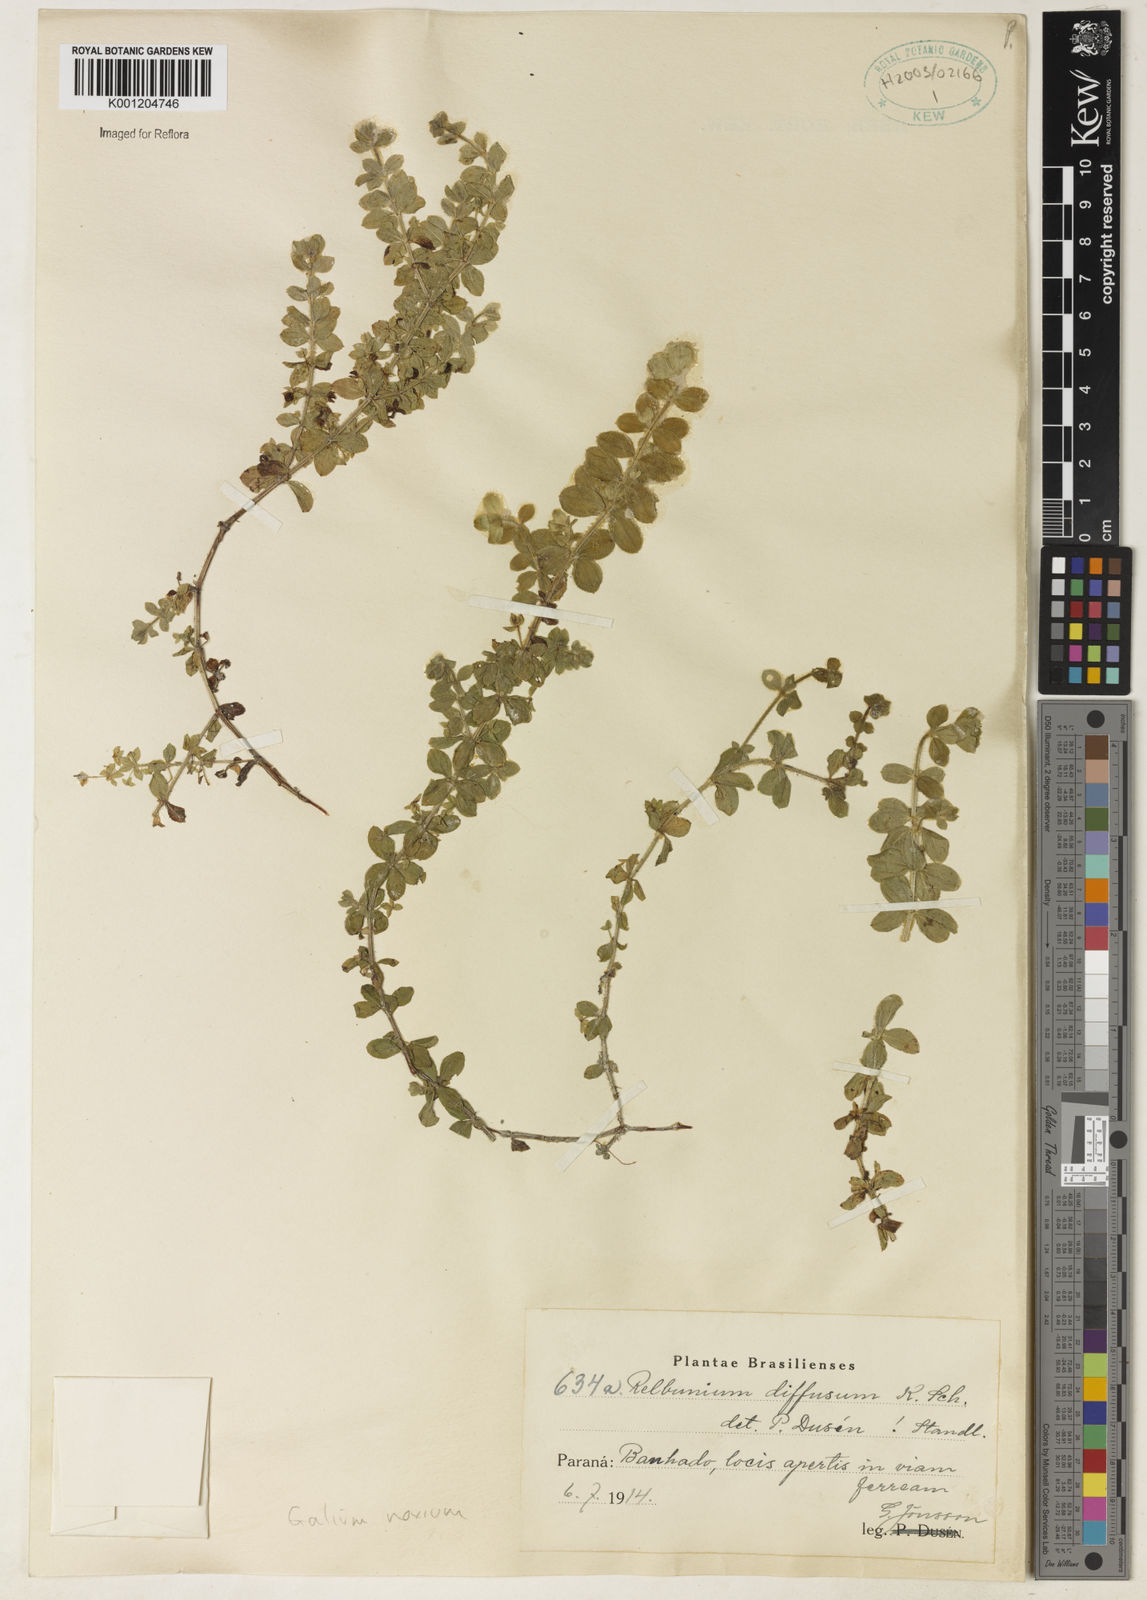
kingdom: Plantae
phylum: Tracheophyta
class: Magnoliopsida
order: Gentianales
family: Rubiaceae
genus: Galium
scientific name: Galium noxium
